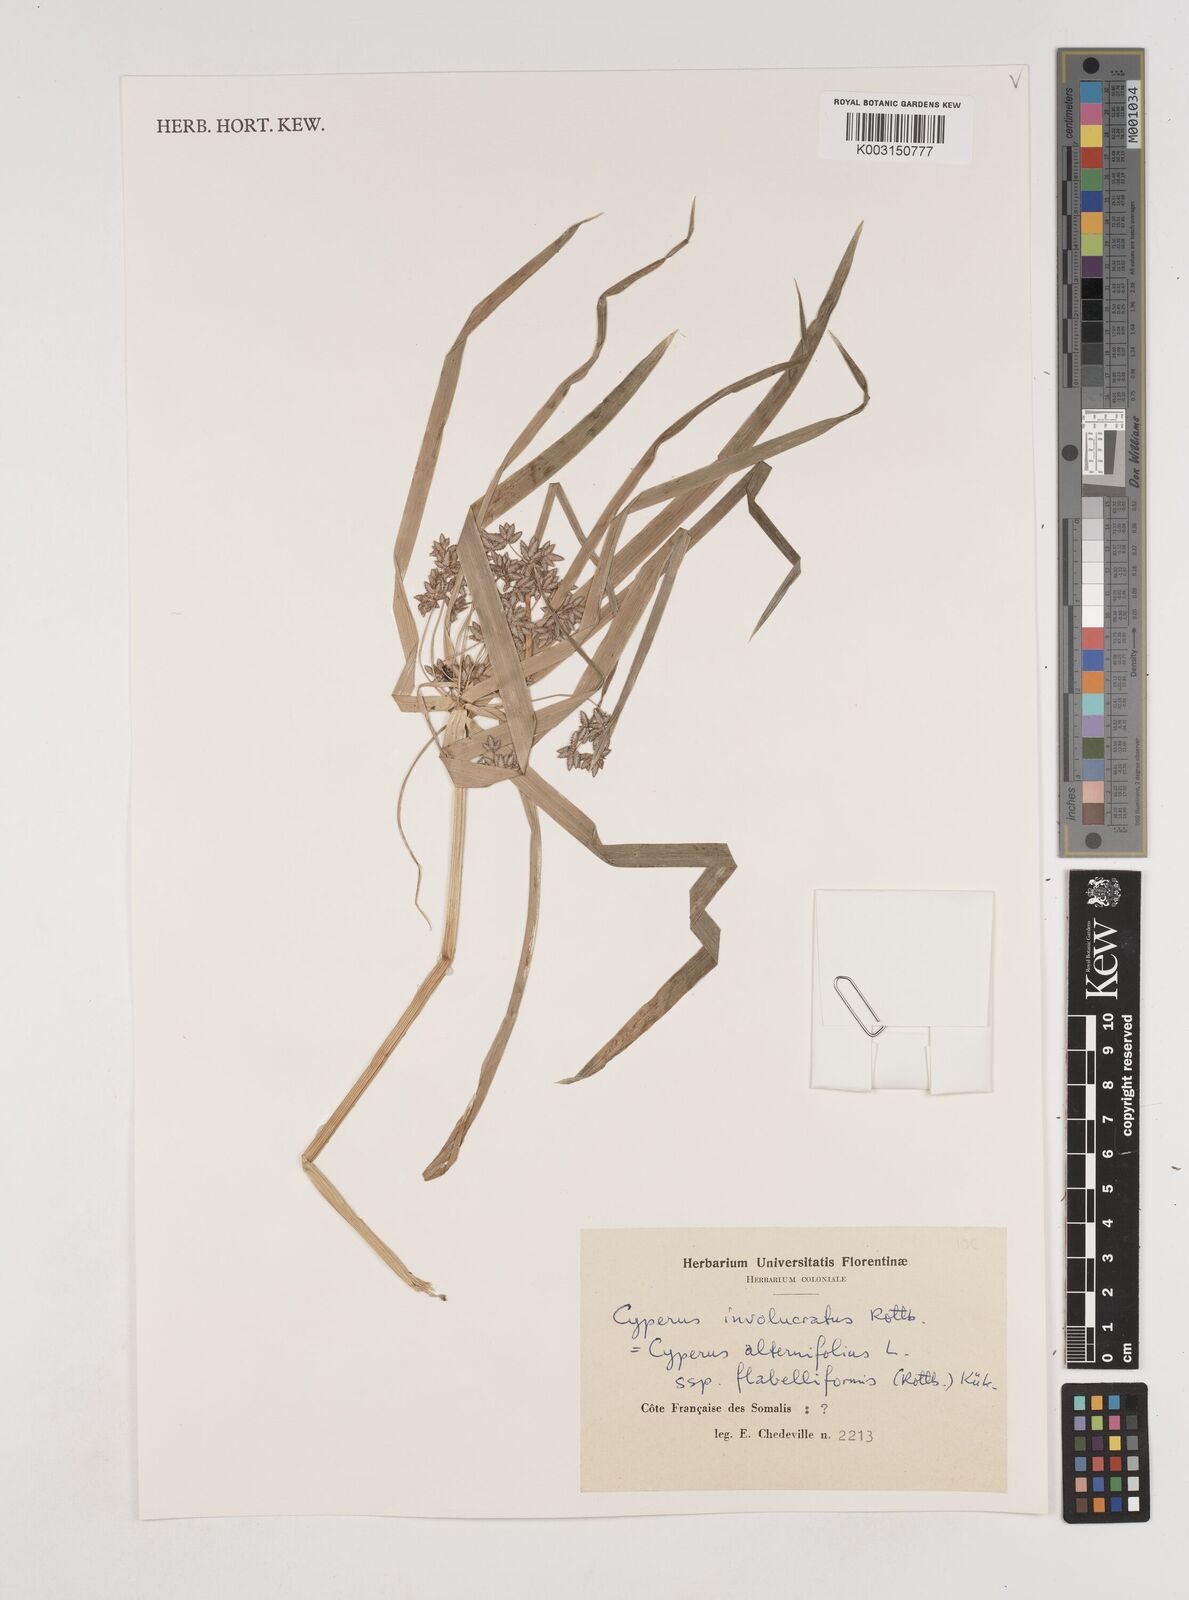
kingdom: Plantae
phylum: Tracheophyta
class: Liliopsida
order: Poales
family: Cyperaceae
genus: Cyperus
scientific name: Cyperus alternifolius
